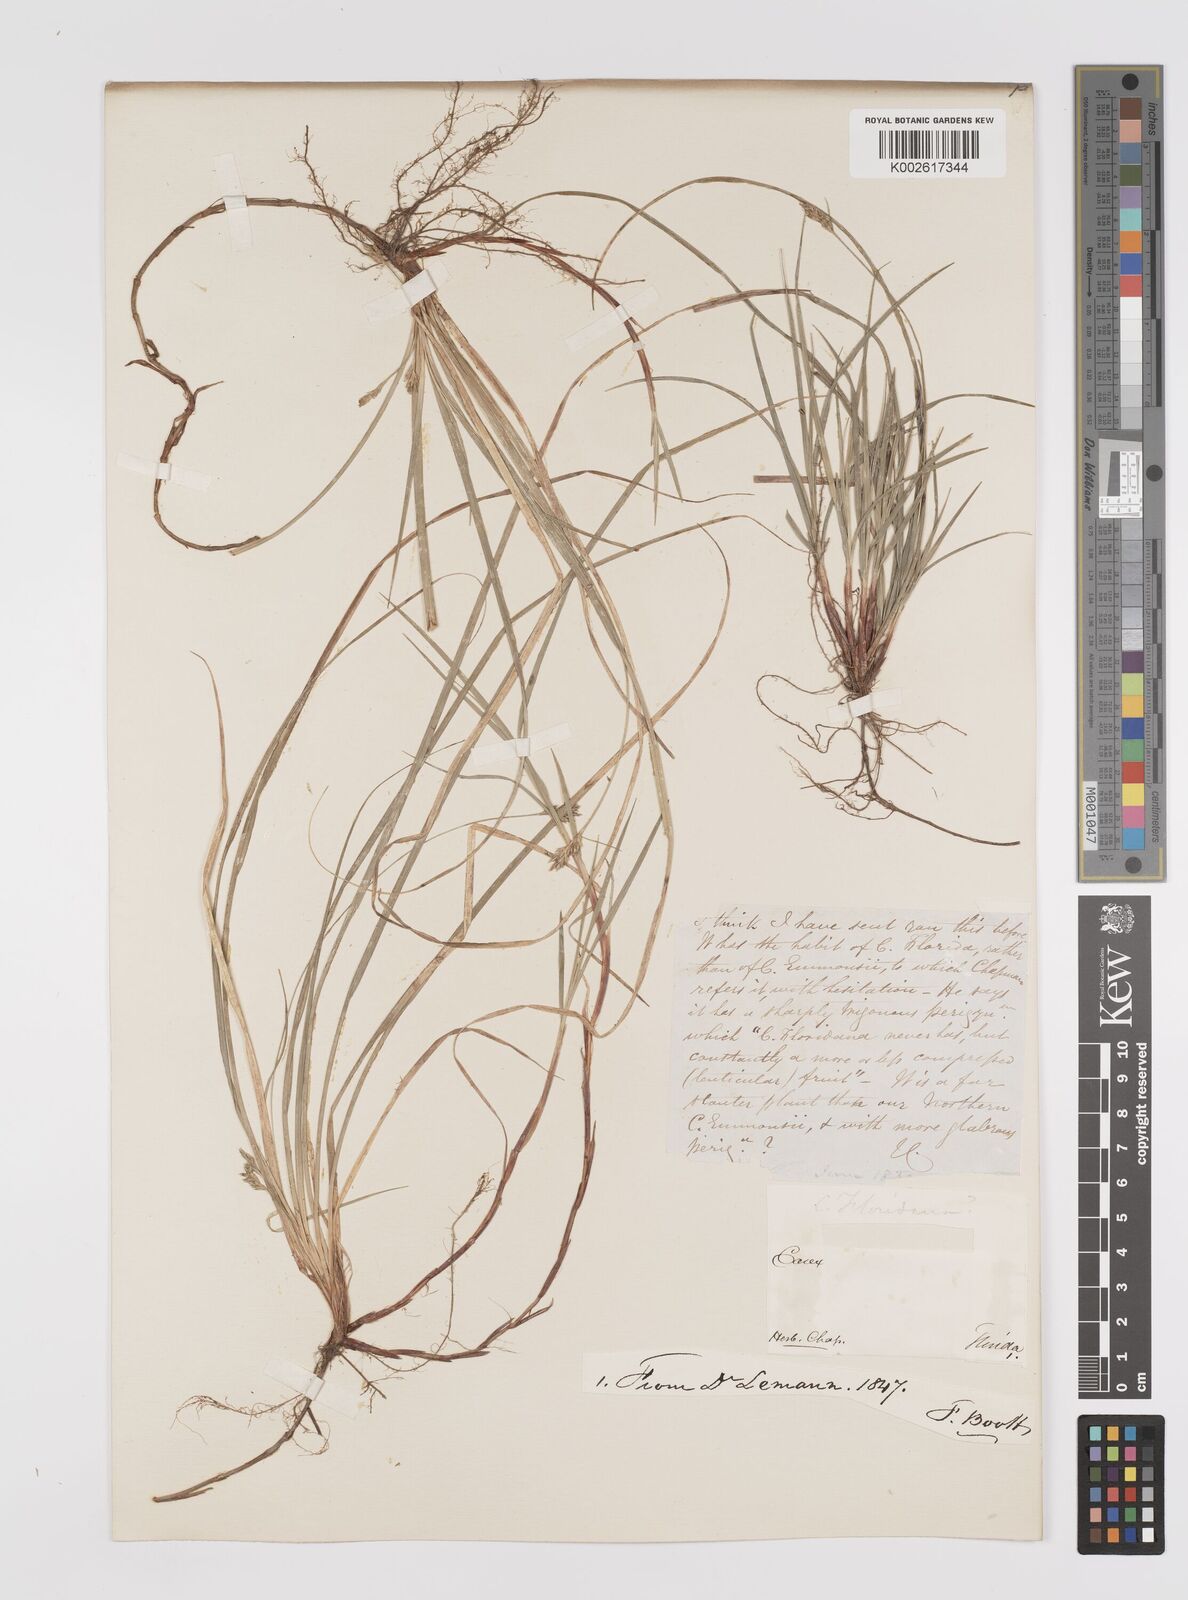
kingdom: Plantae
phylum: Tracheophyta
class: Liliopsida
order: Poales
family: Cyperaceae
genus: Carex
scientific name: Carex floridana
